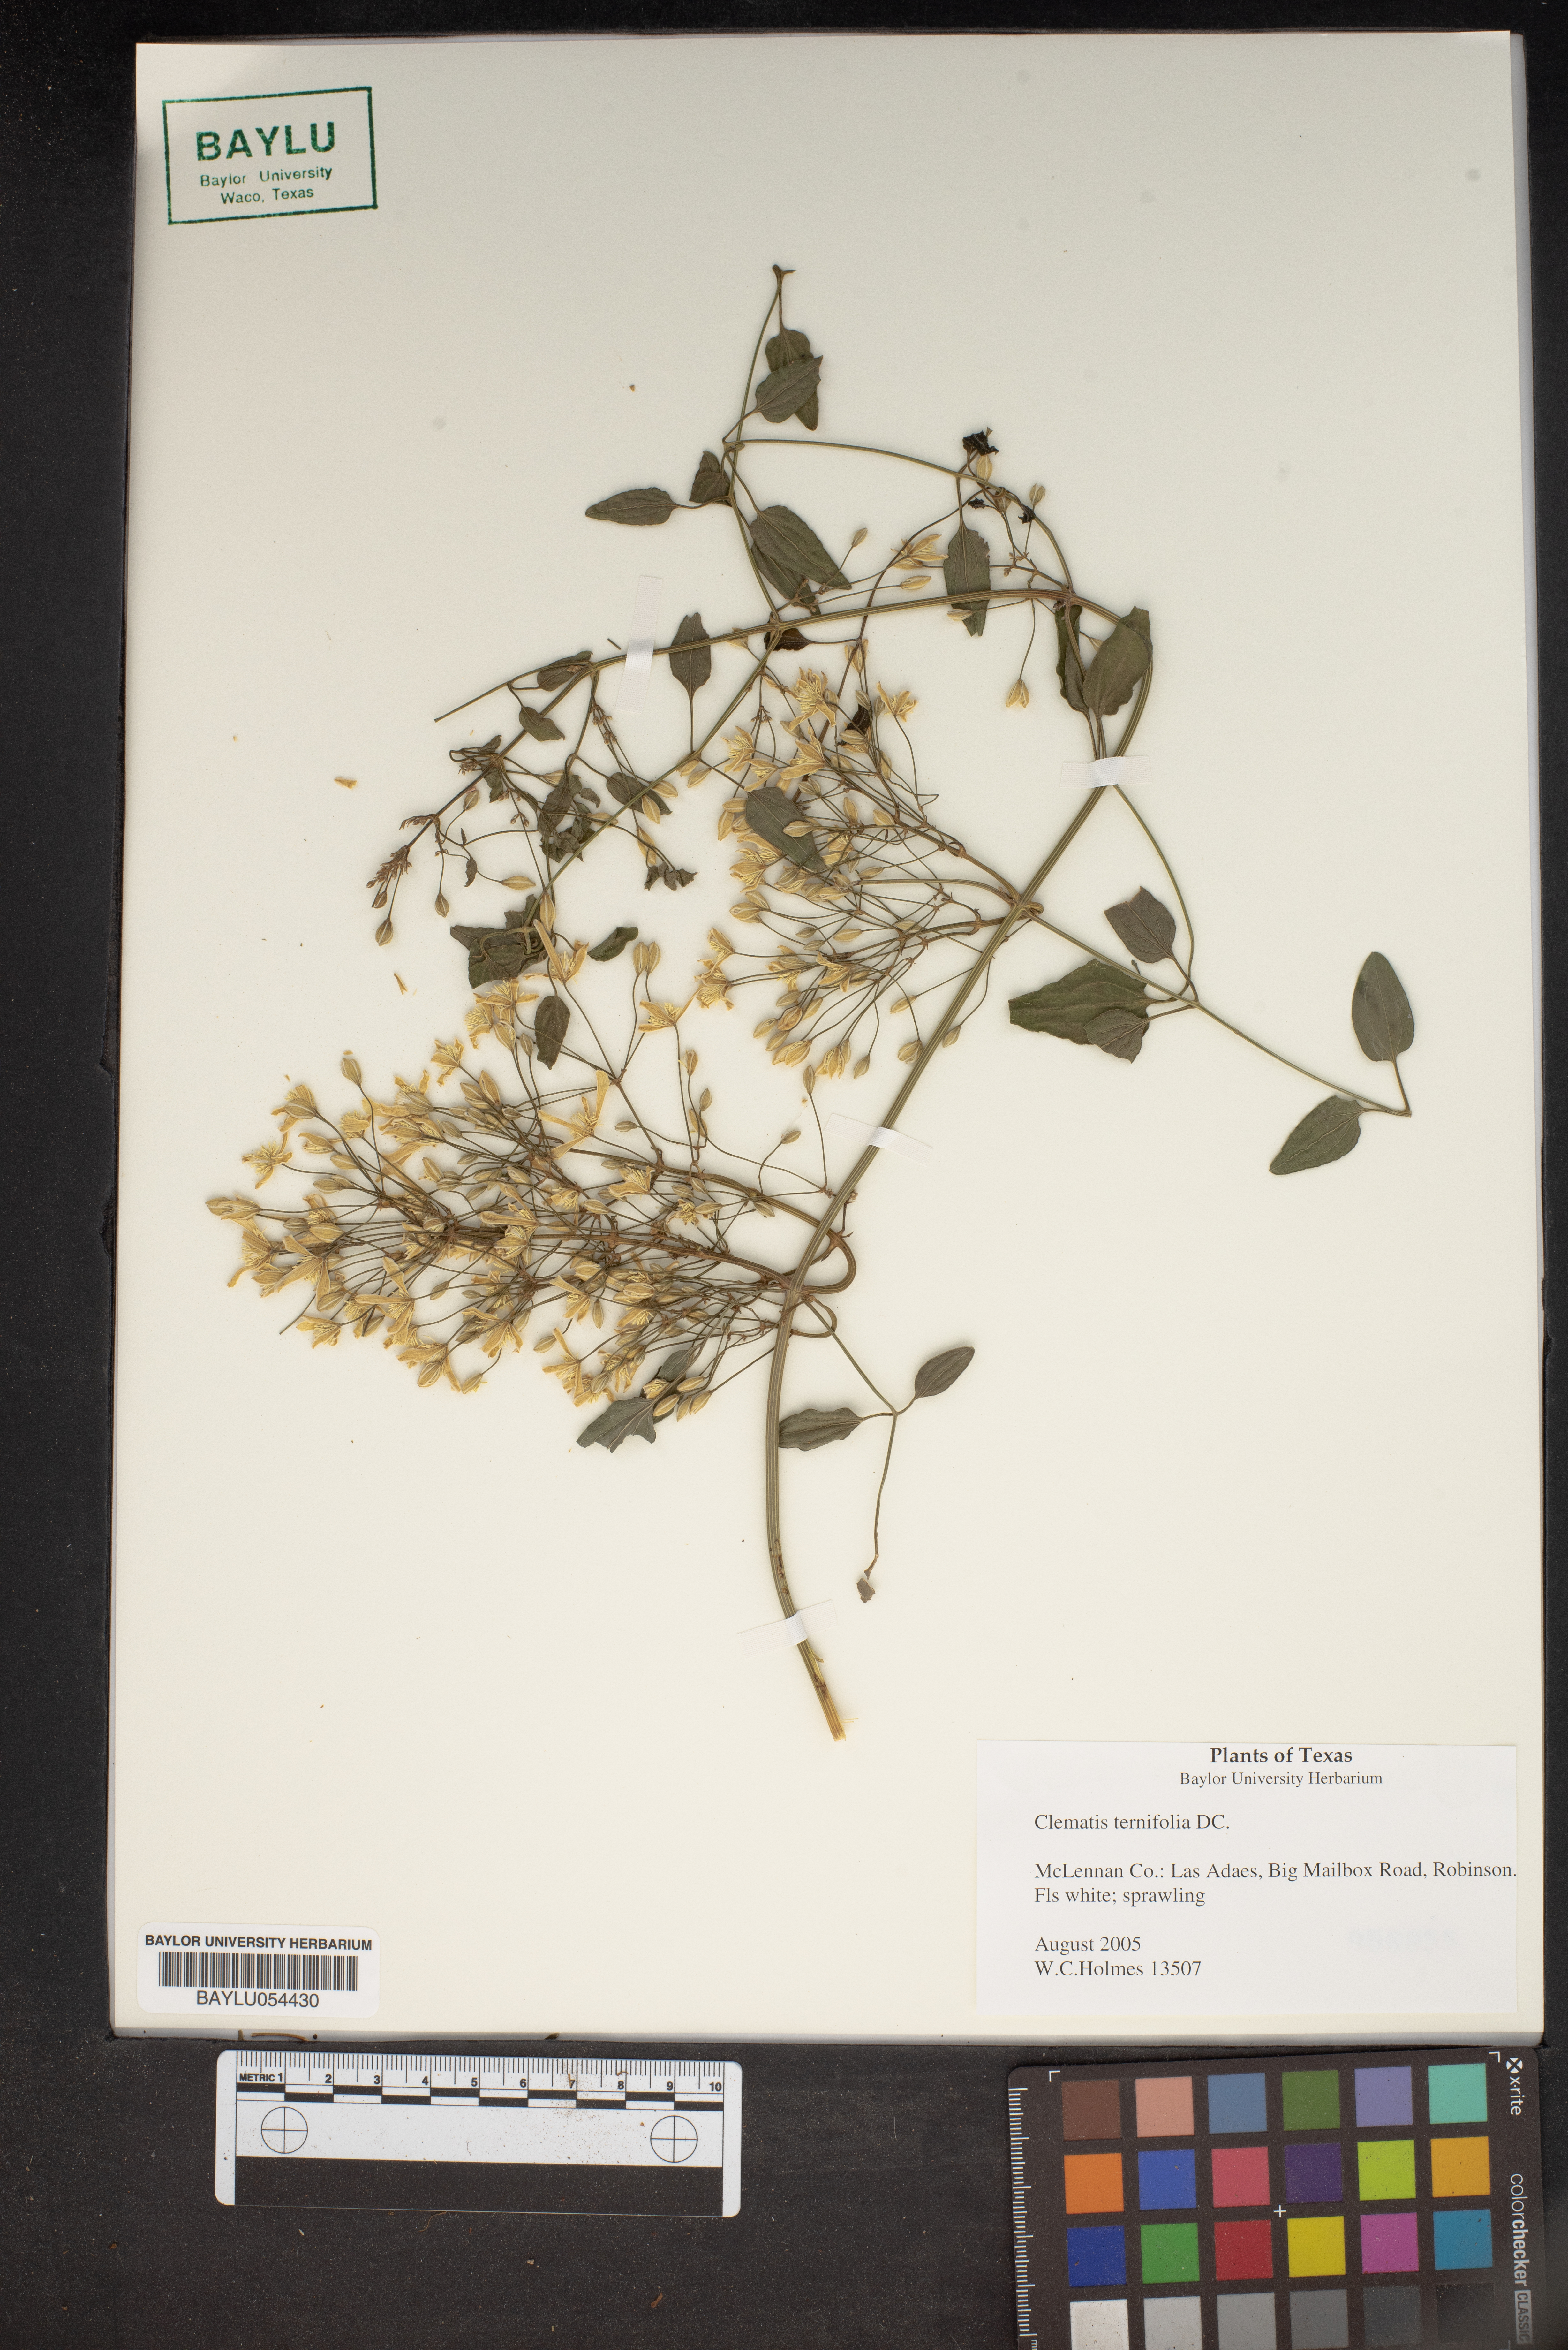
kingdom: Plantae
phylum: Tracheophyta
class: Magnoliopsida
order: Ranunculales
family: Ranunculaceae
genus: Clematis
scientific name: Clematis terniflora
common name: Sweet autumn clematis
